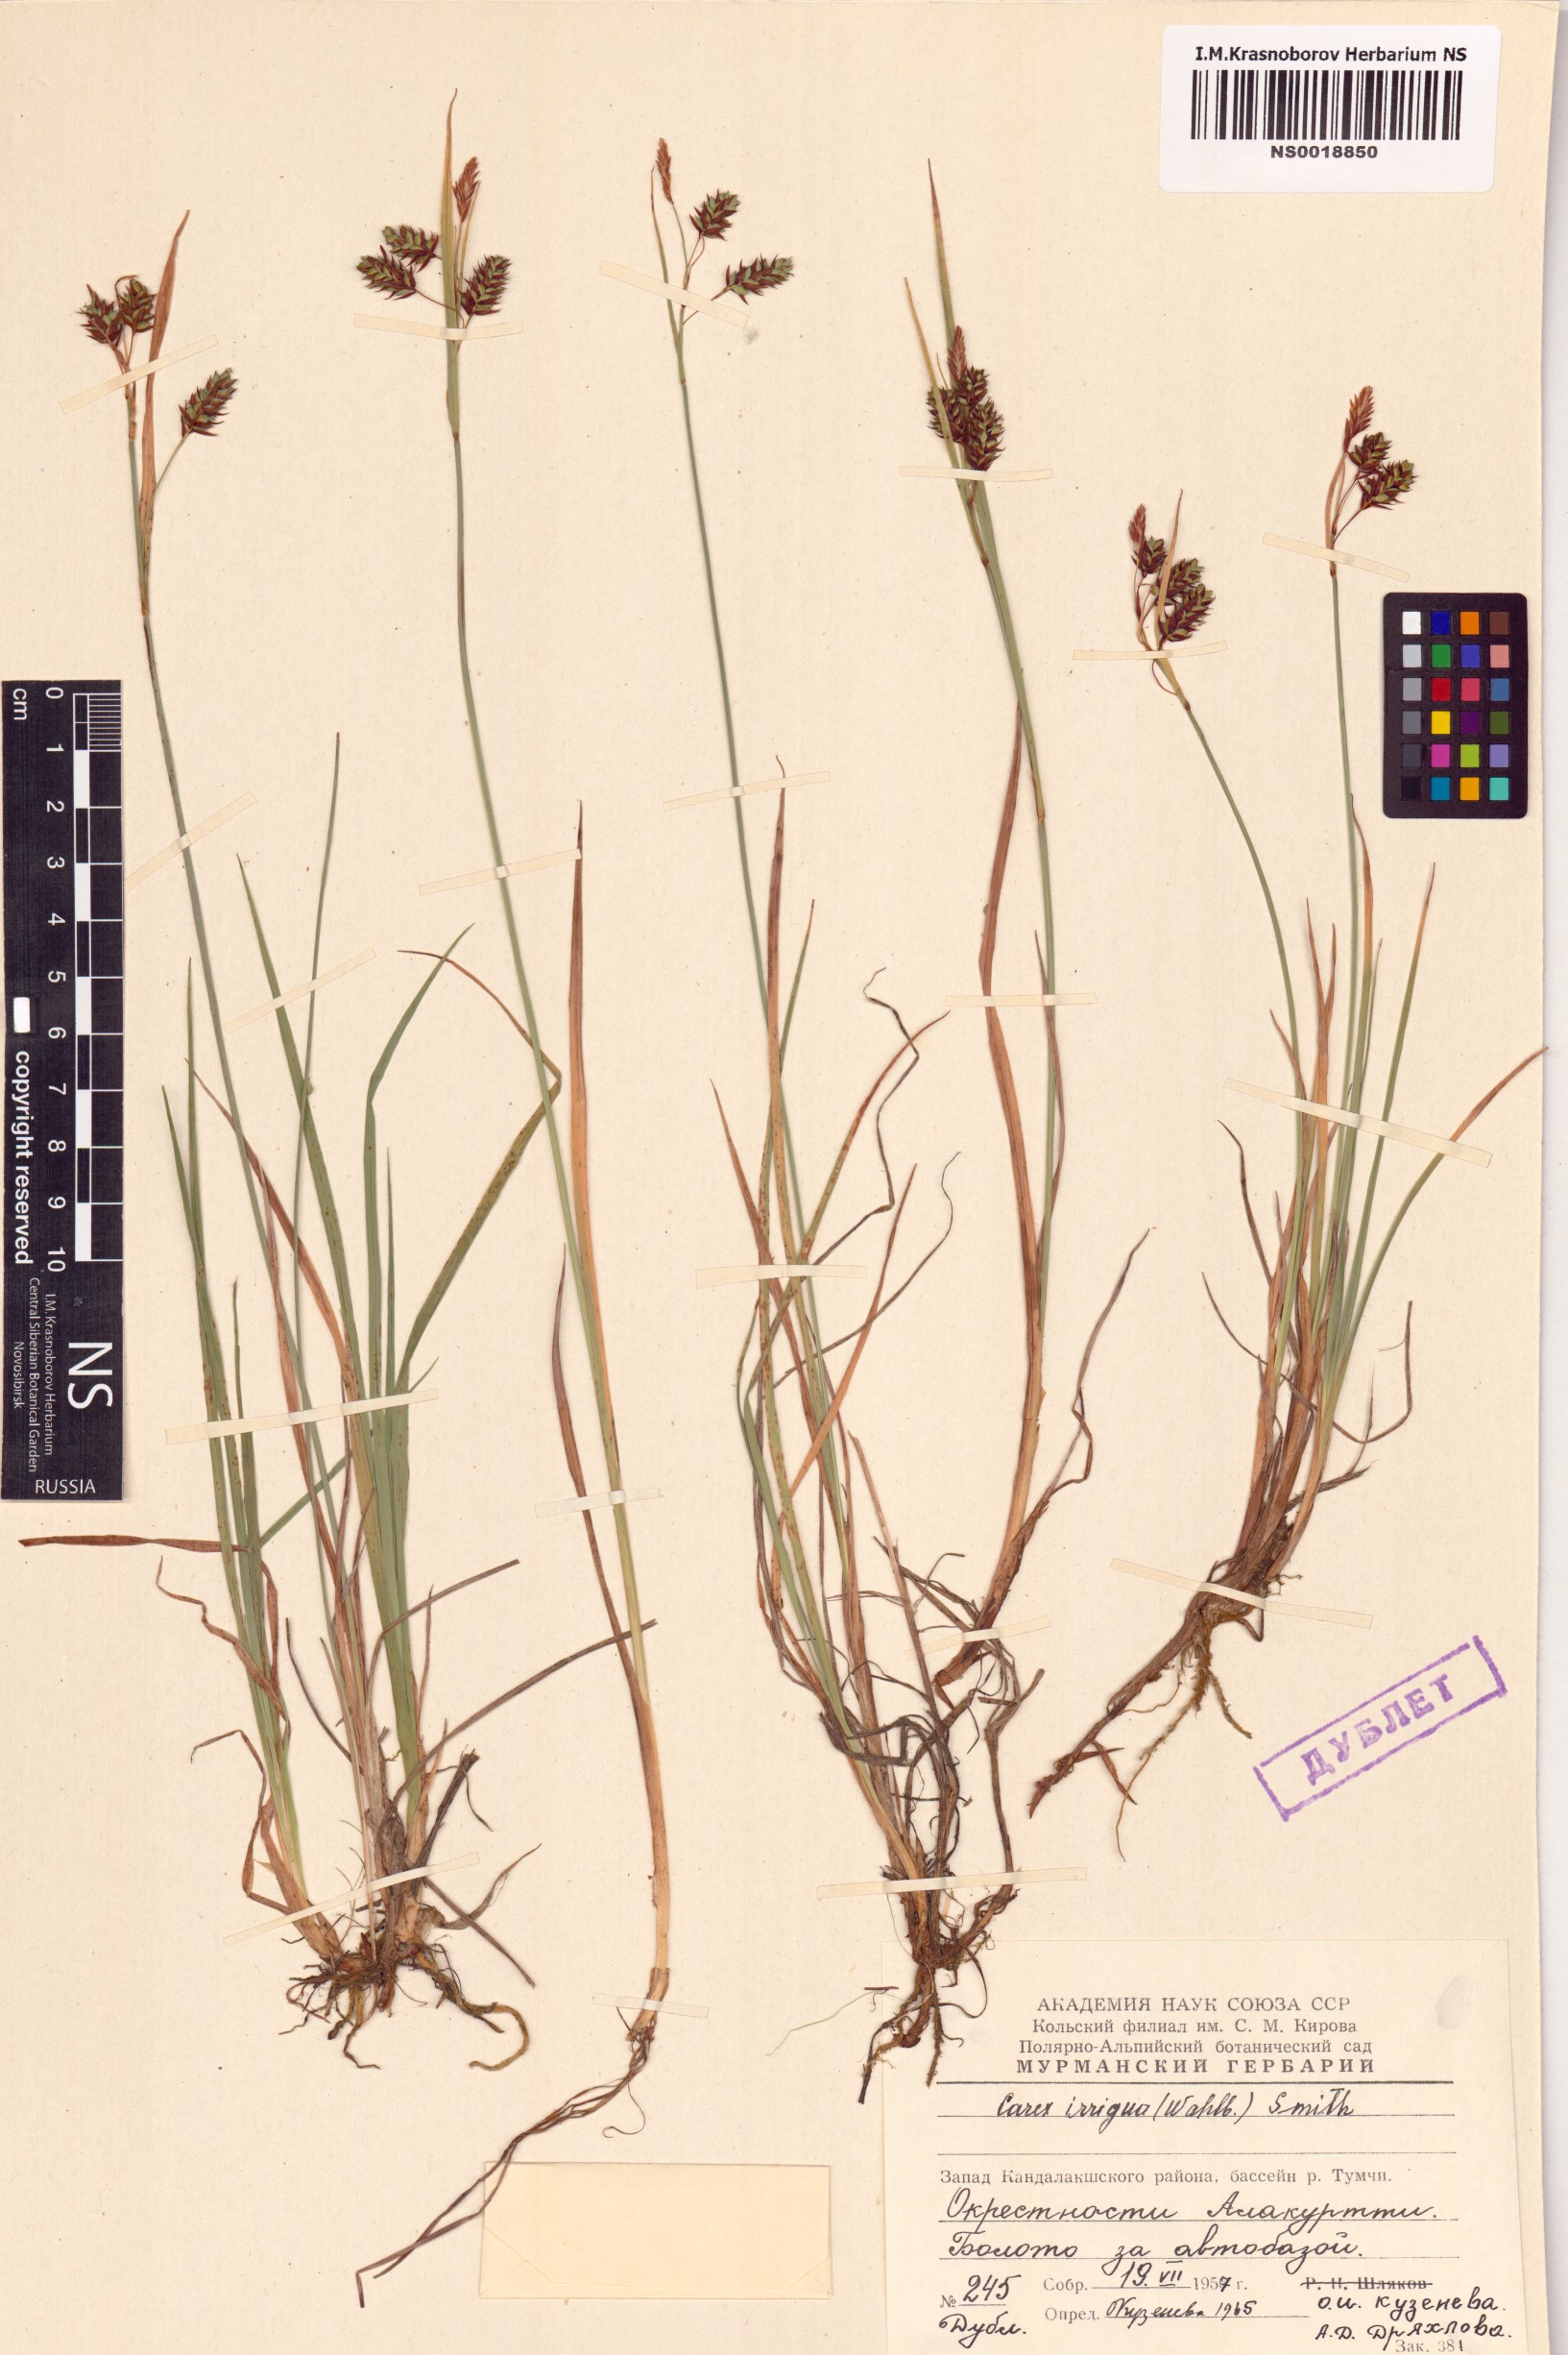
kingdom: Plantae
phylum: Tracheophyta
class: Liliopsida
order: Poales
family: Cyperaceae
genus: Carex
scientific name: Carex magellanica
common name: Bog sedge
